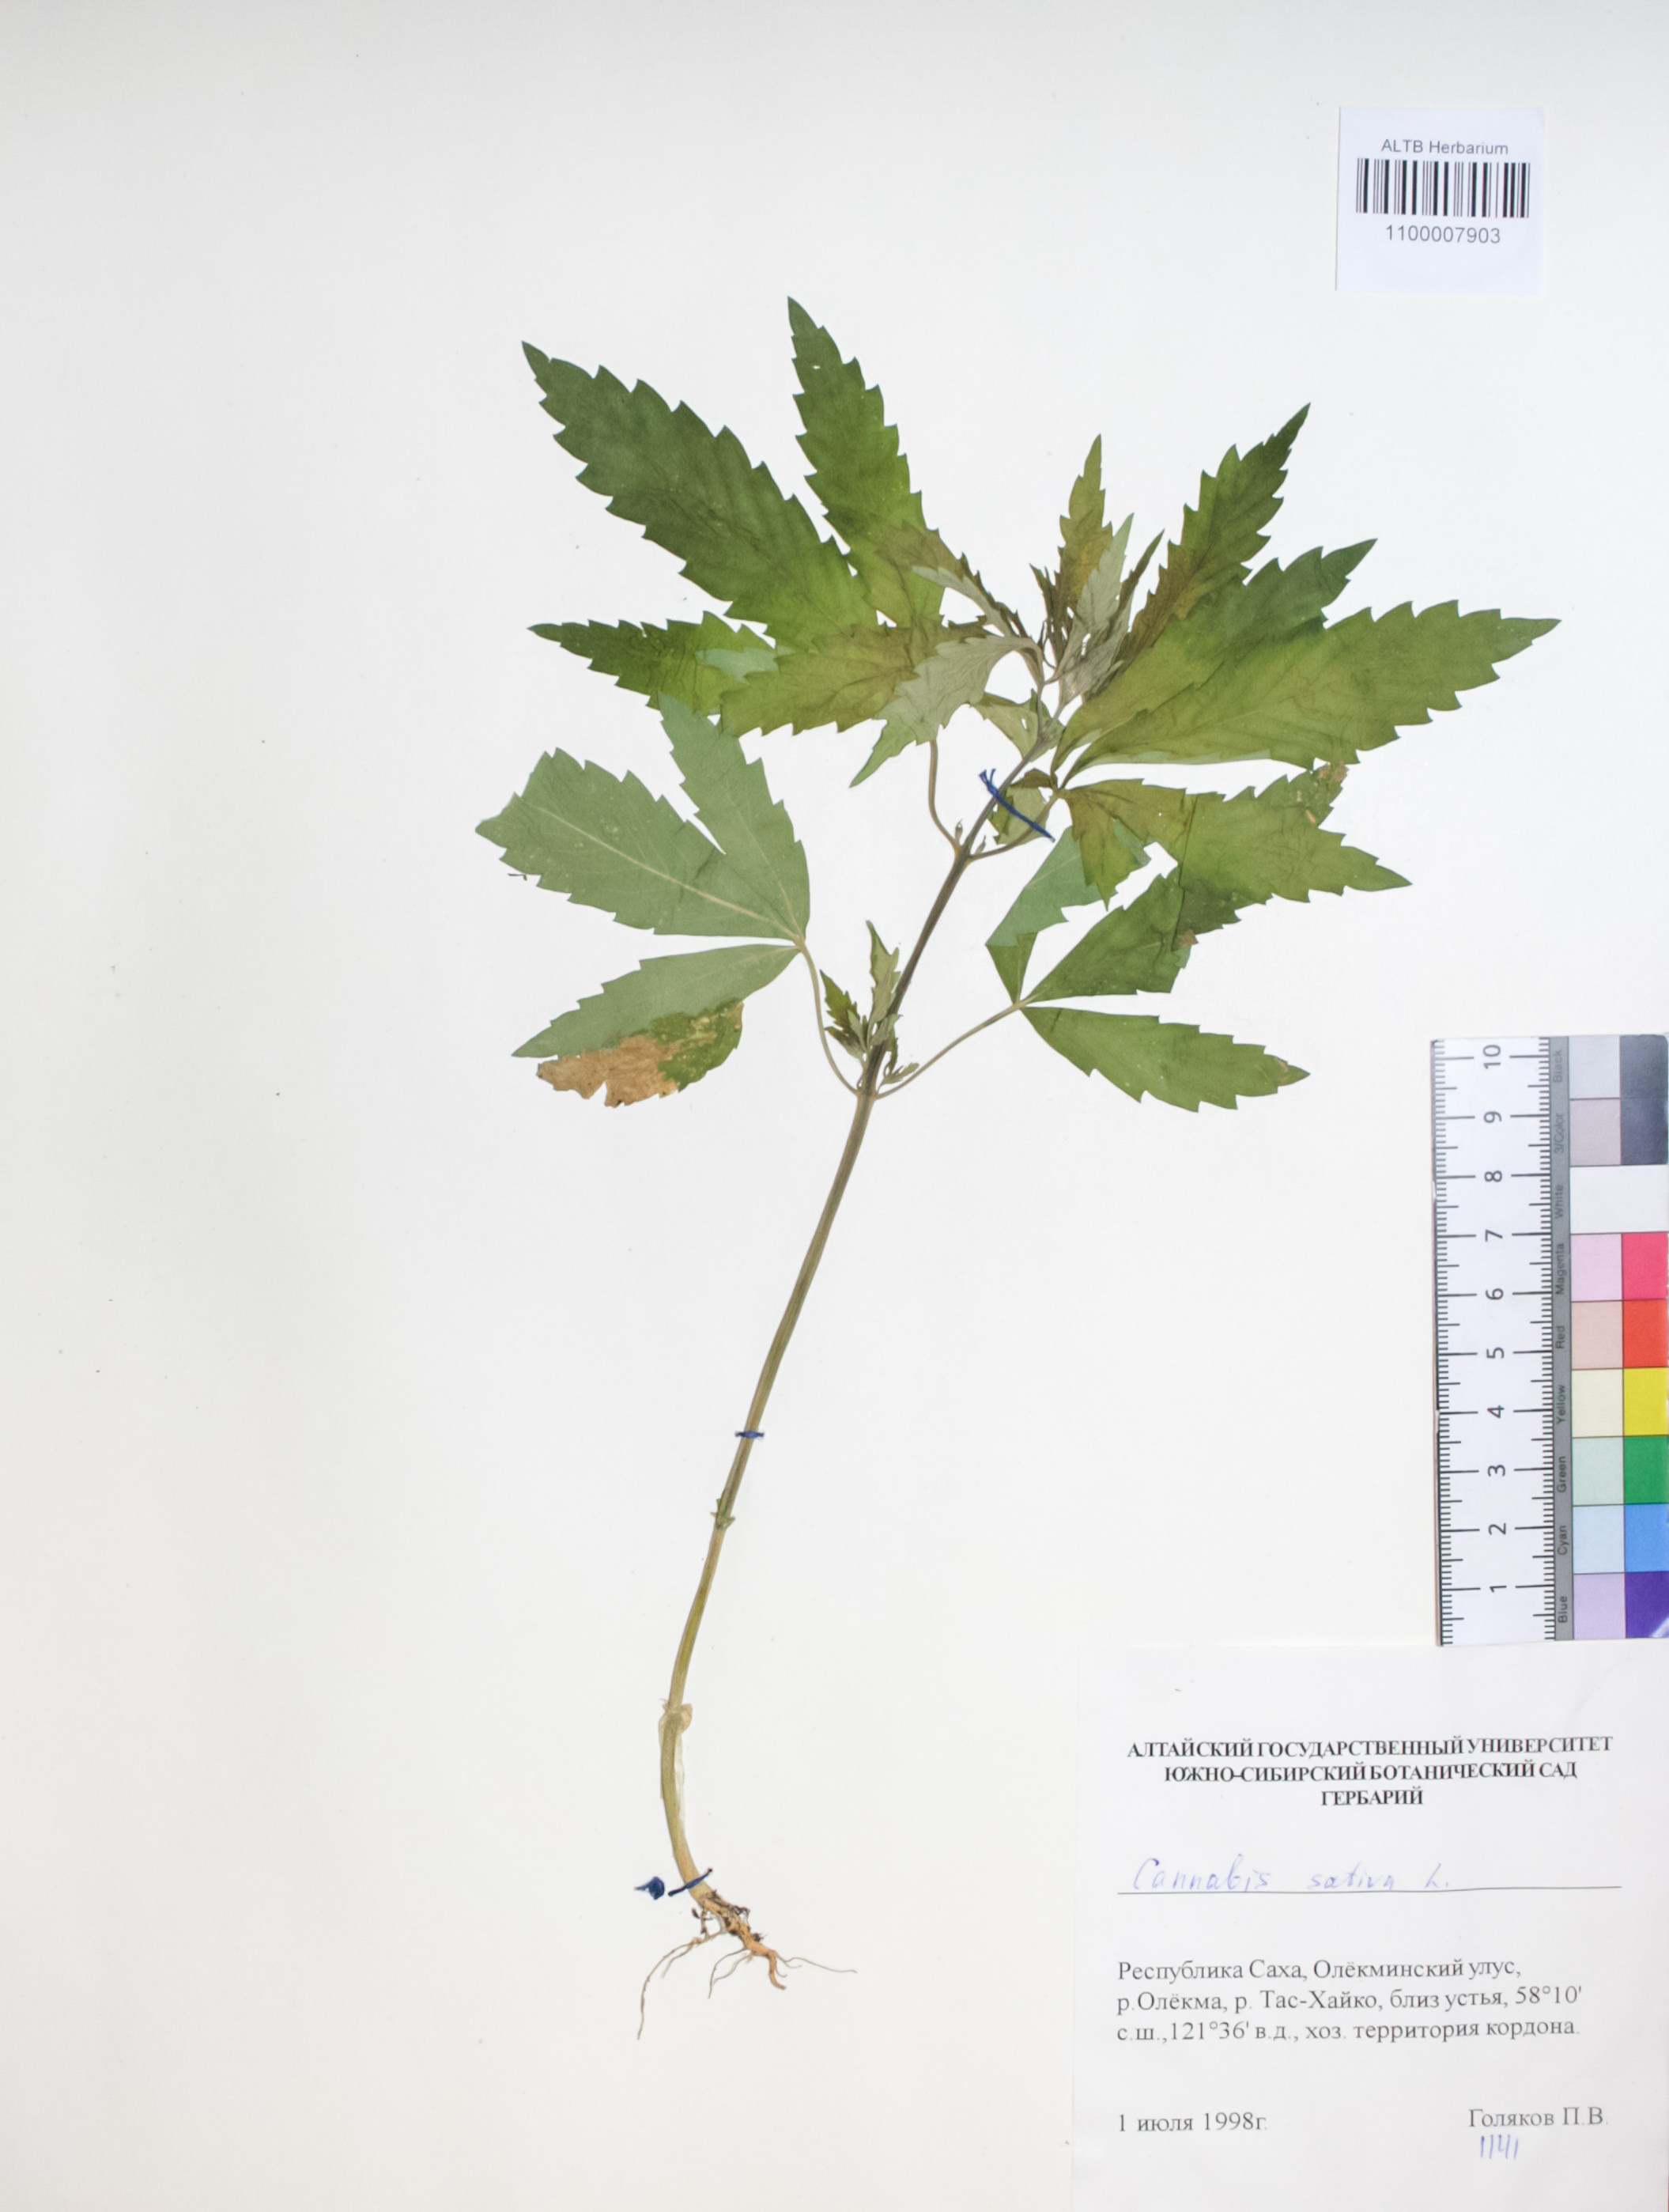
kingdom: Plantae
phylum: Tracheophyta
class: Magnoliopsida
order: Rosales
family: Cannabaceae
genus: Cannabis
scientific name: Cannabis sativa
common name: Hemp
